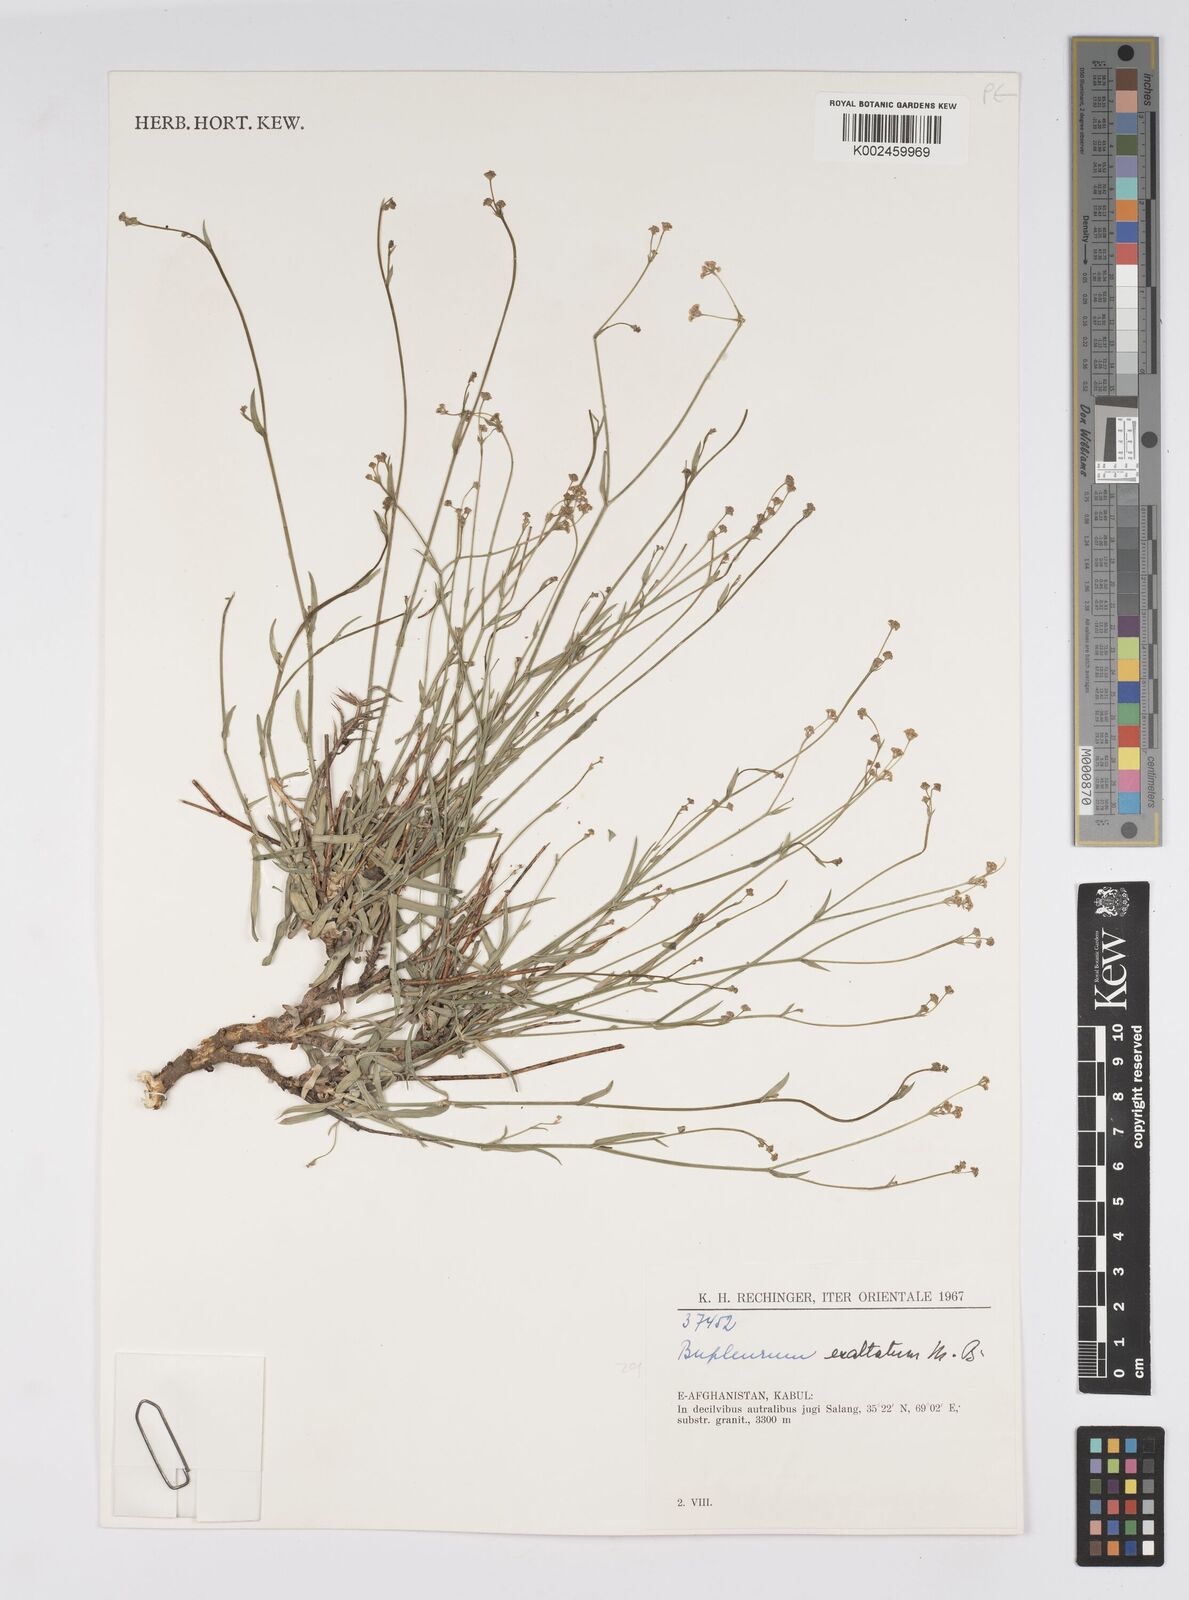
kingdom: Plantae
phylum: Tracheophyta
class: Magnoliopsida
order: Apiales
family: Apiaceae
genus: Bupleurum
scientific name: Bupleurum falcatum
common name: Sickle-leaved hare's-ear
